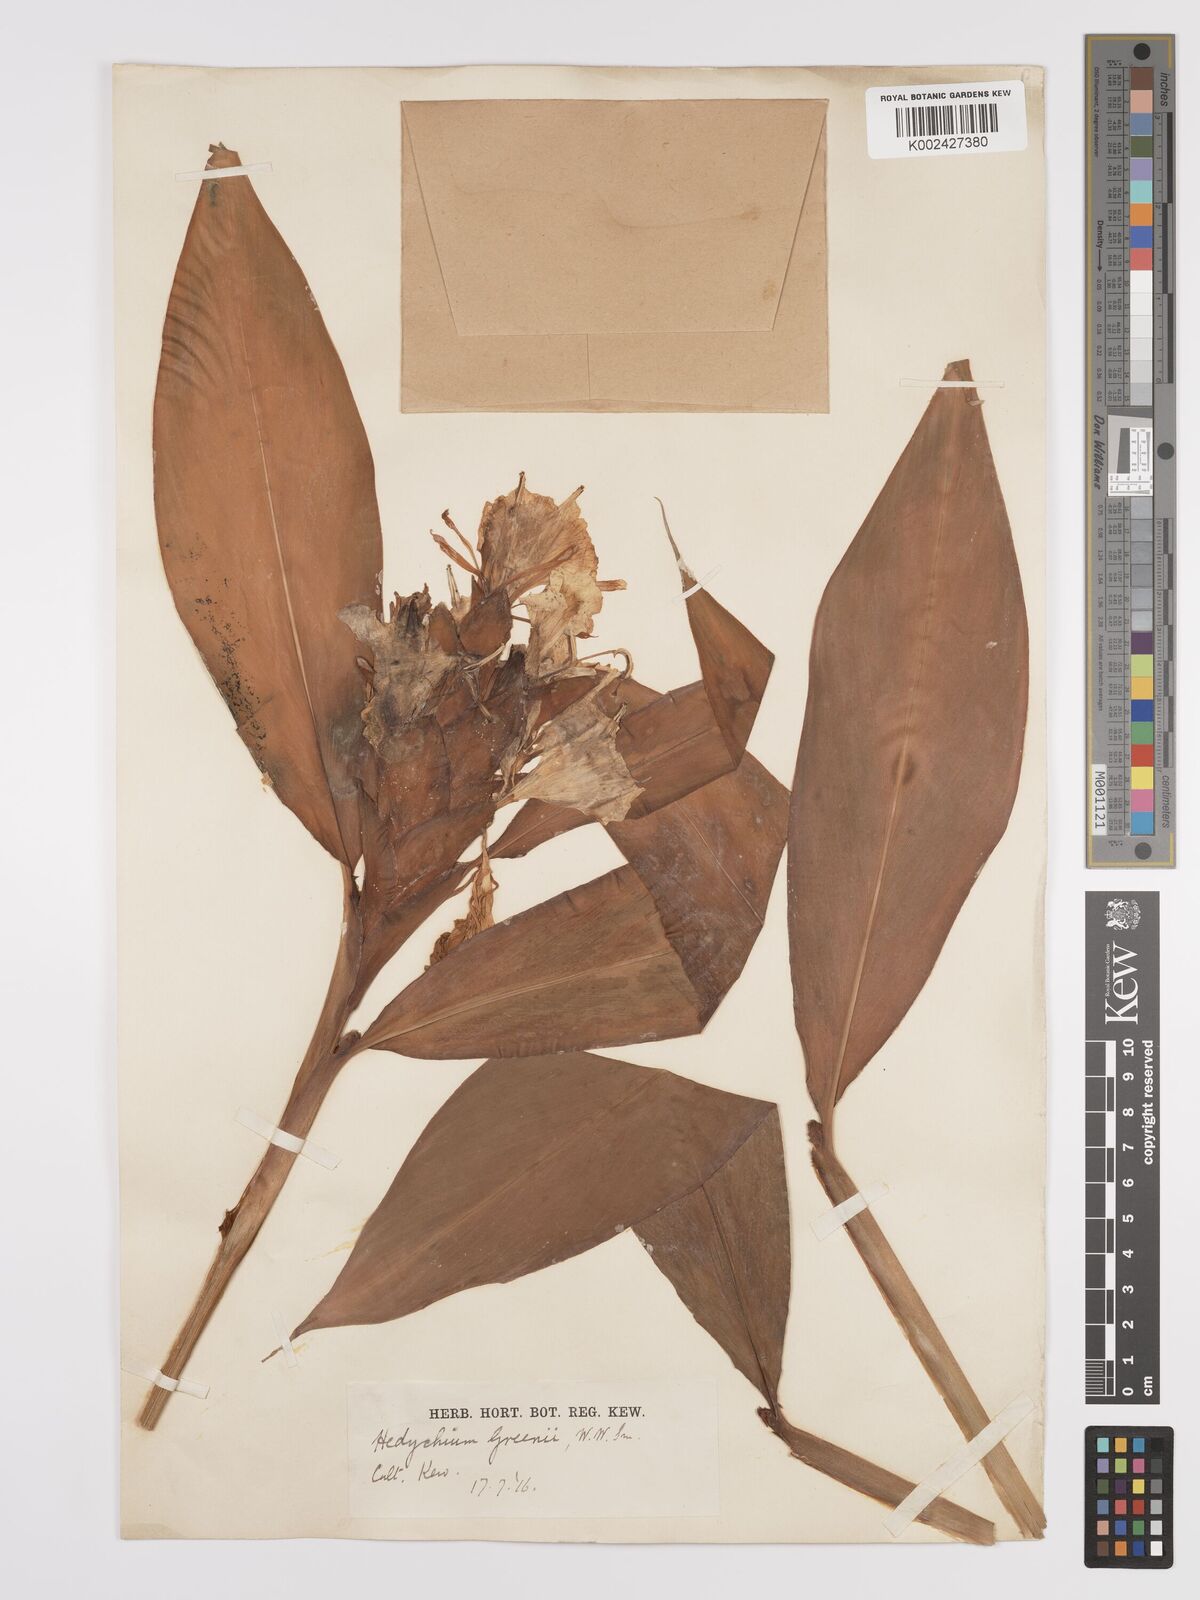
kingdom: Plantae
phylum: Tracheophyta
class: Liliopsida
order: Zingiberales
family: Zingiberaceae
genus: Hedychium
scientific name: Hedychium greenii
